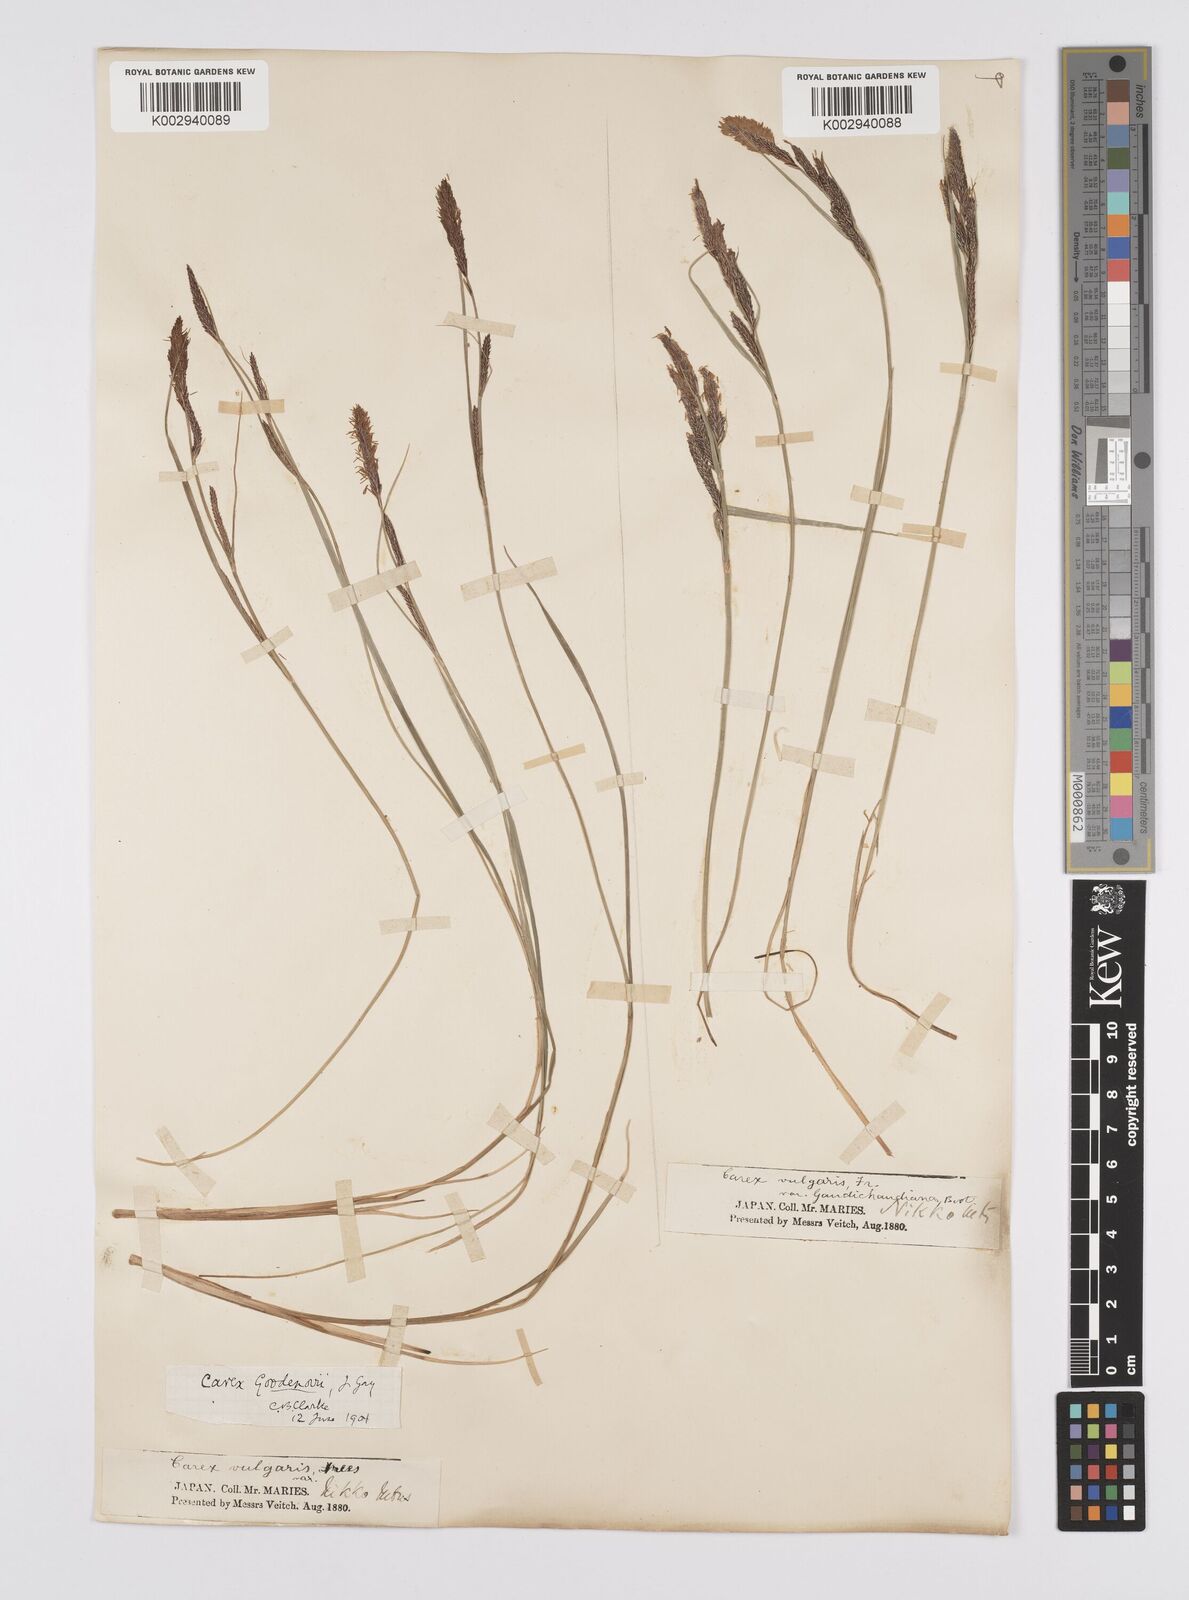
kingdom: Plantae
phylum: Tracheophyta
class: Liliopsida
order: Poales
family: Cyperaceae
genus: Carex
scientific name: Carex thunbergii
